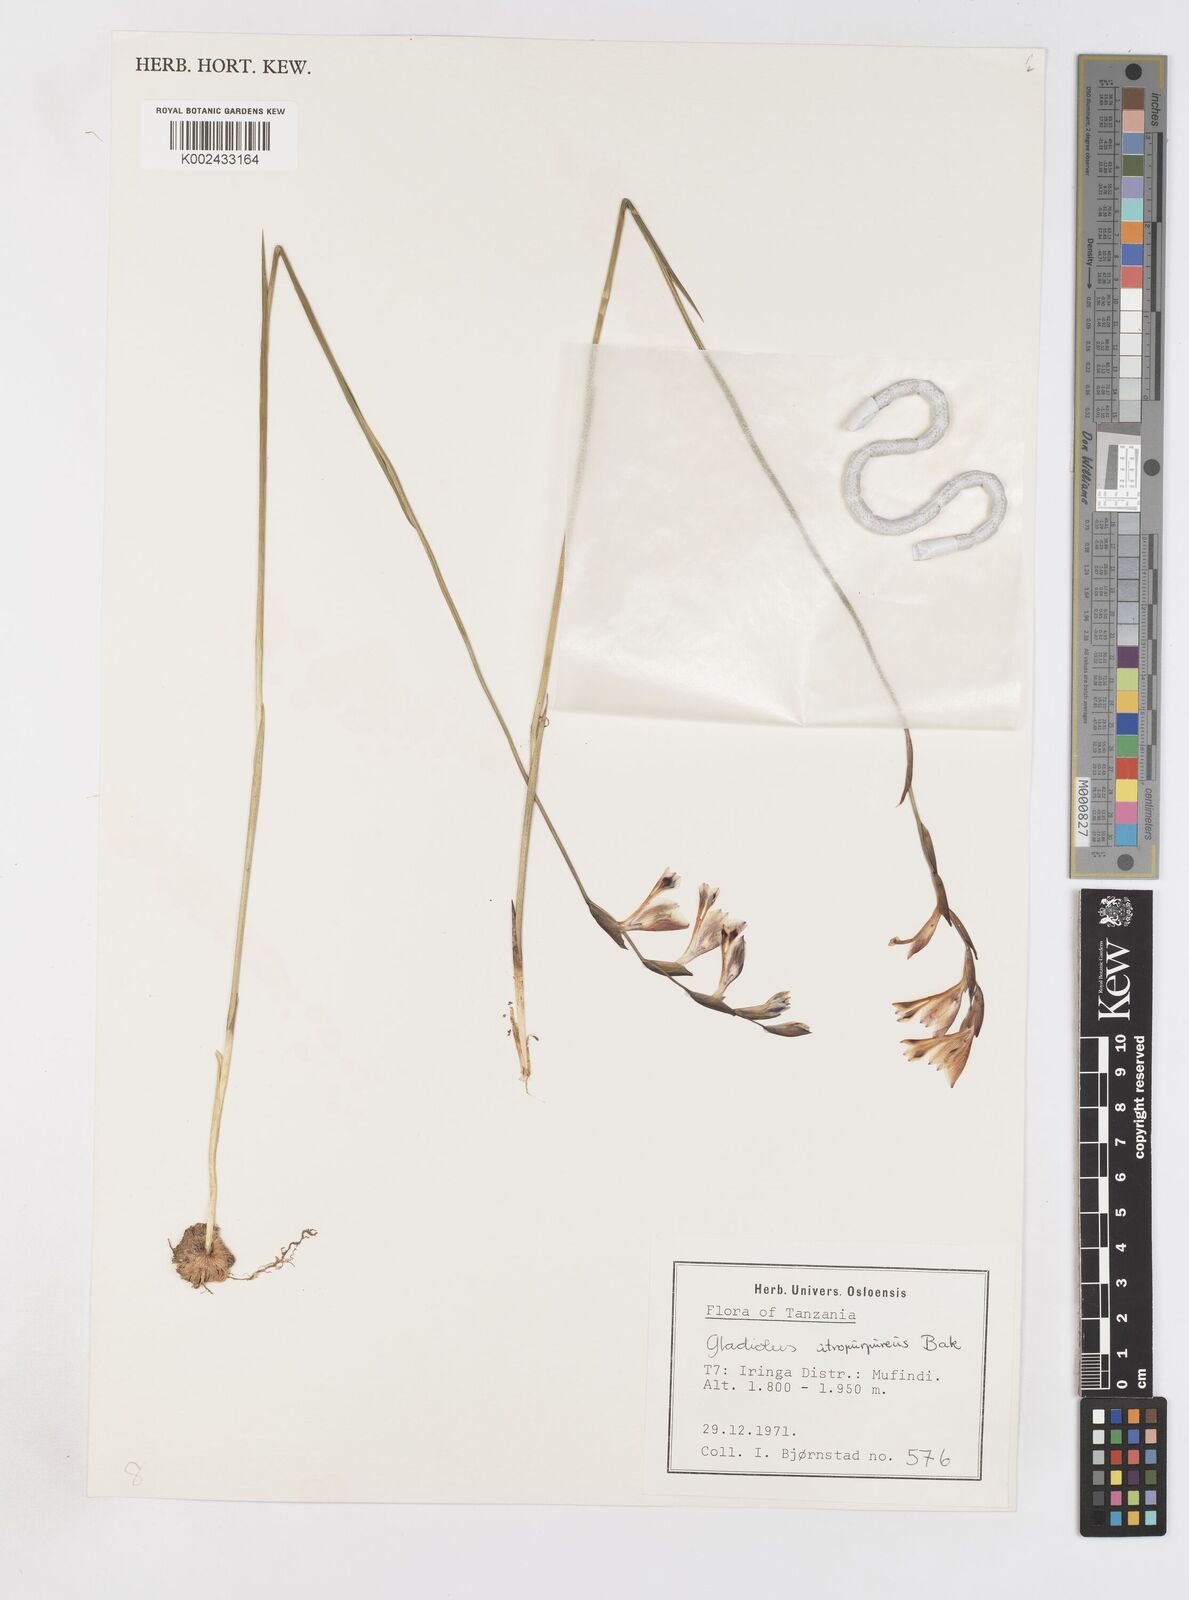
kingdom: Plantae
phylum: Tracheophyta
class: Liliopsida
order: Asparagales
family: Iridaceae
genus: Gladiolus
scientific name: Gladiolus atropurpureus
